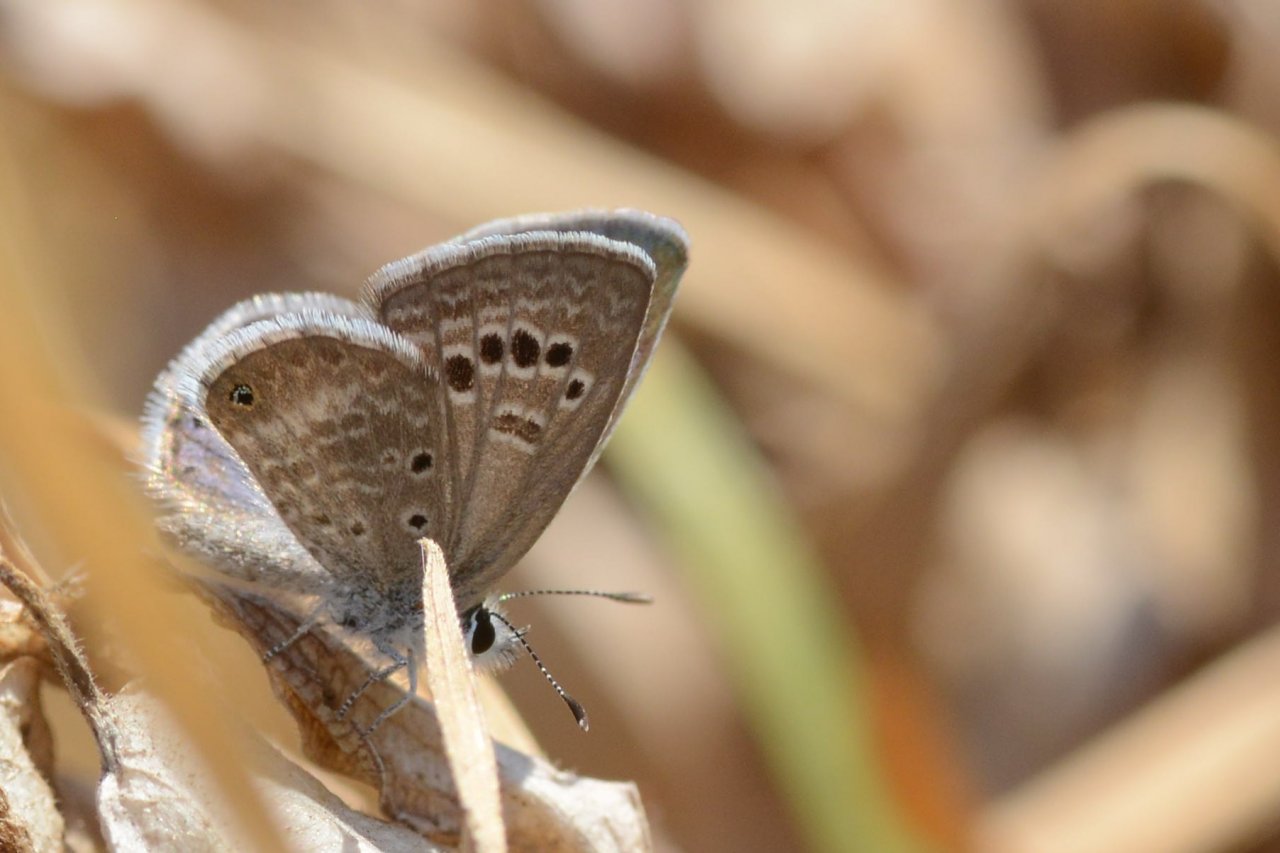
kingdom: Animalia
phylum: Arthropoda
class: Insecta
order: Lepidoptera
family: Lycaenidae
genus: Echinargus
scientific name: Echinargus isola
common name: Reakirt's Blue
